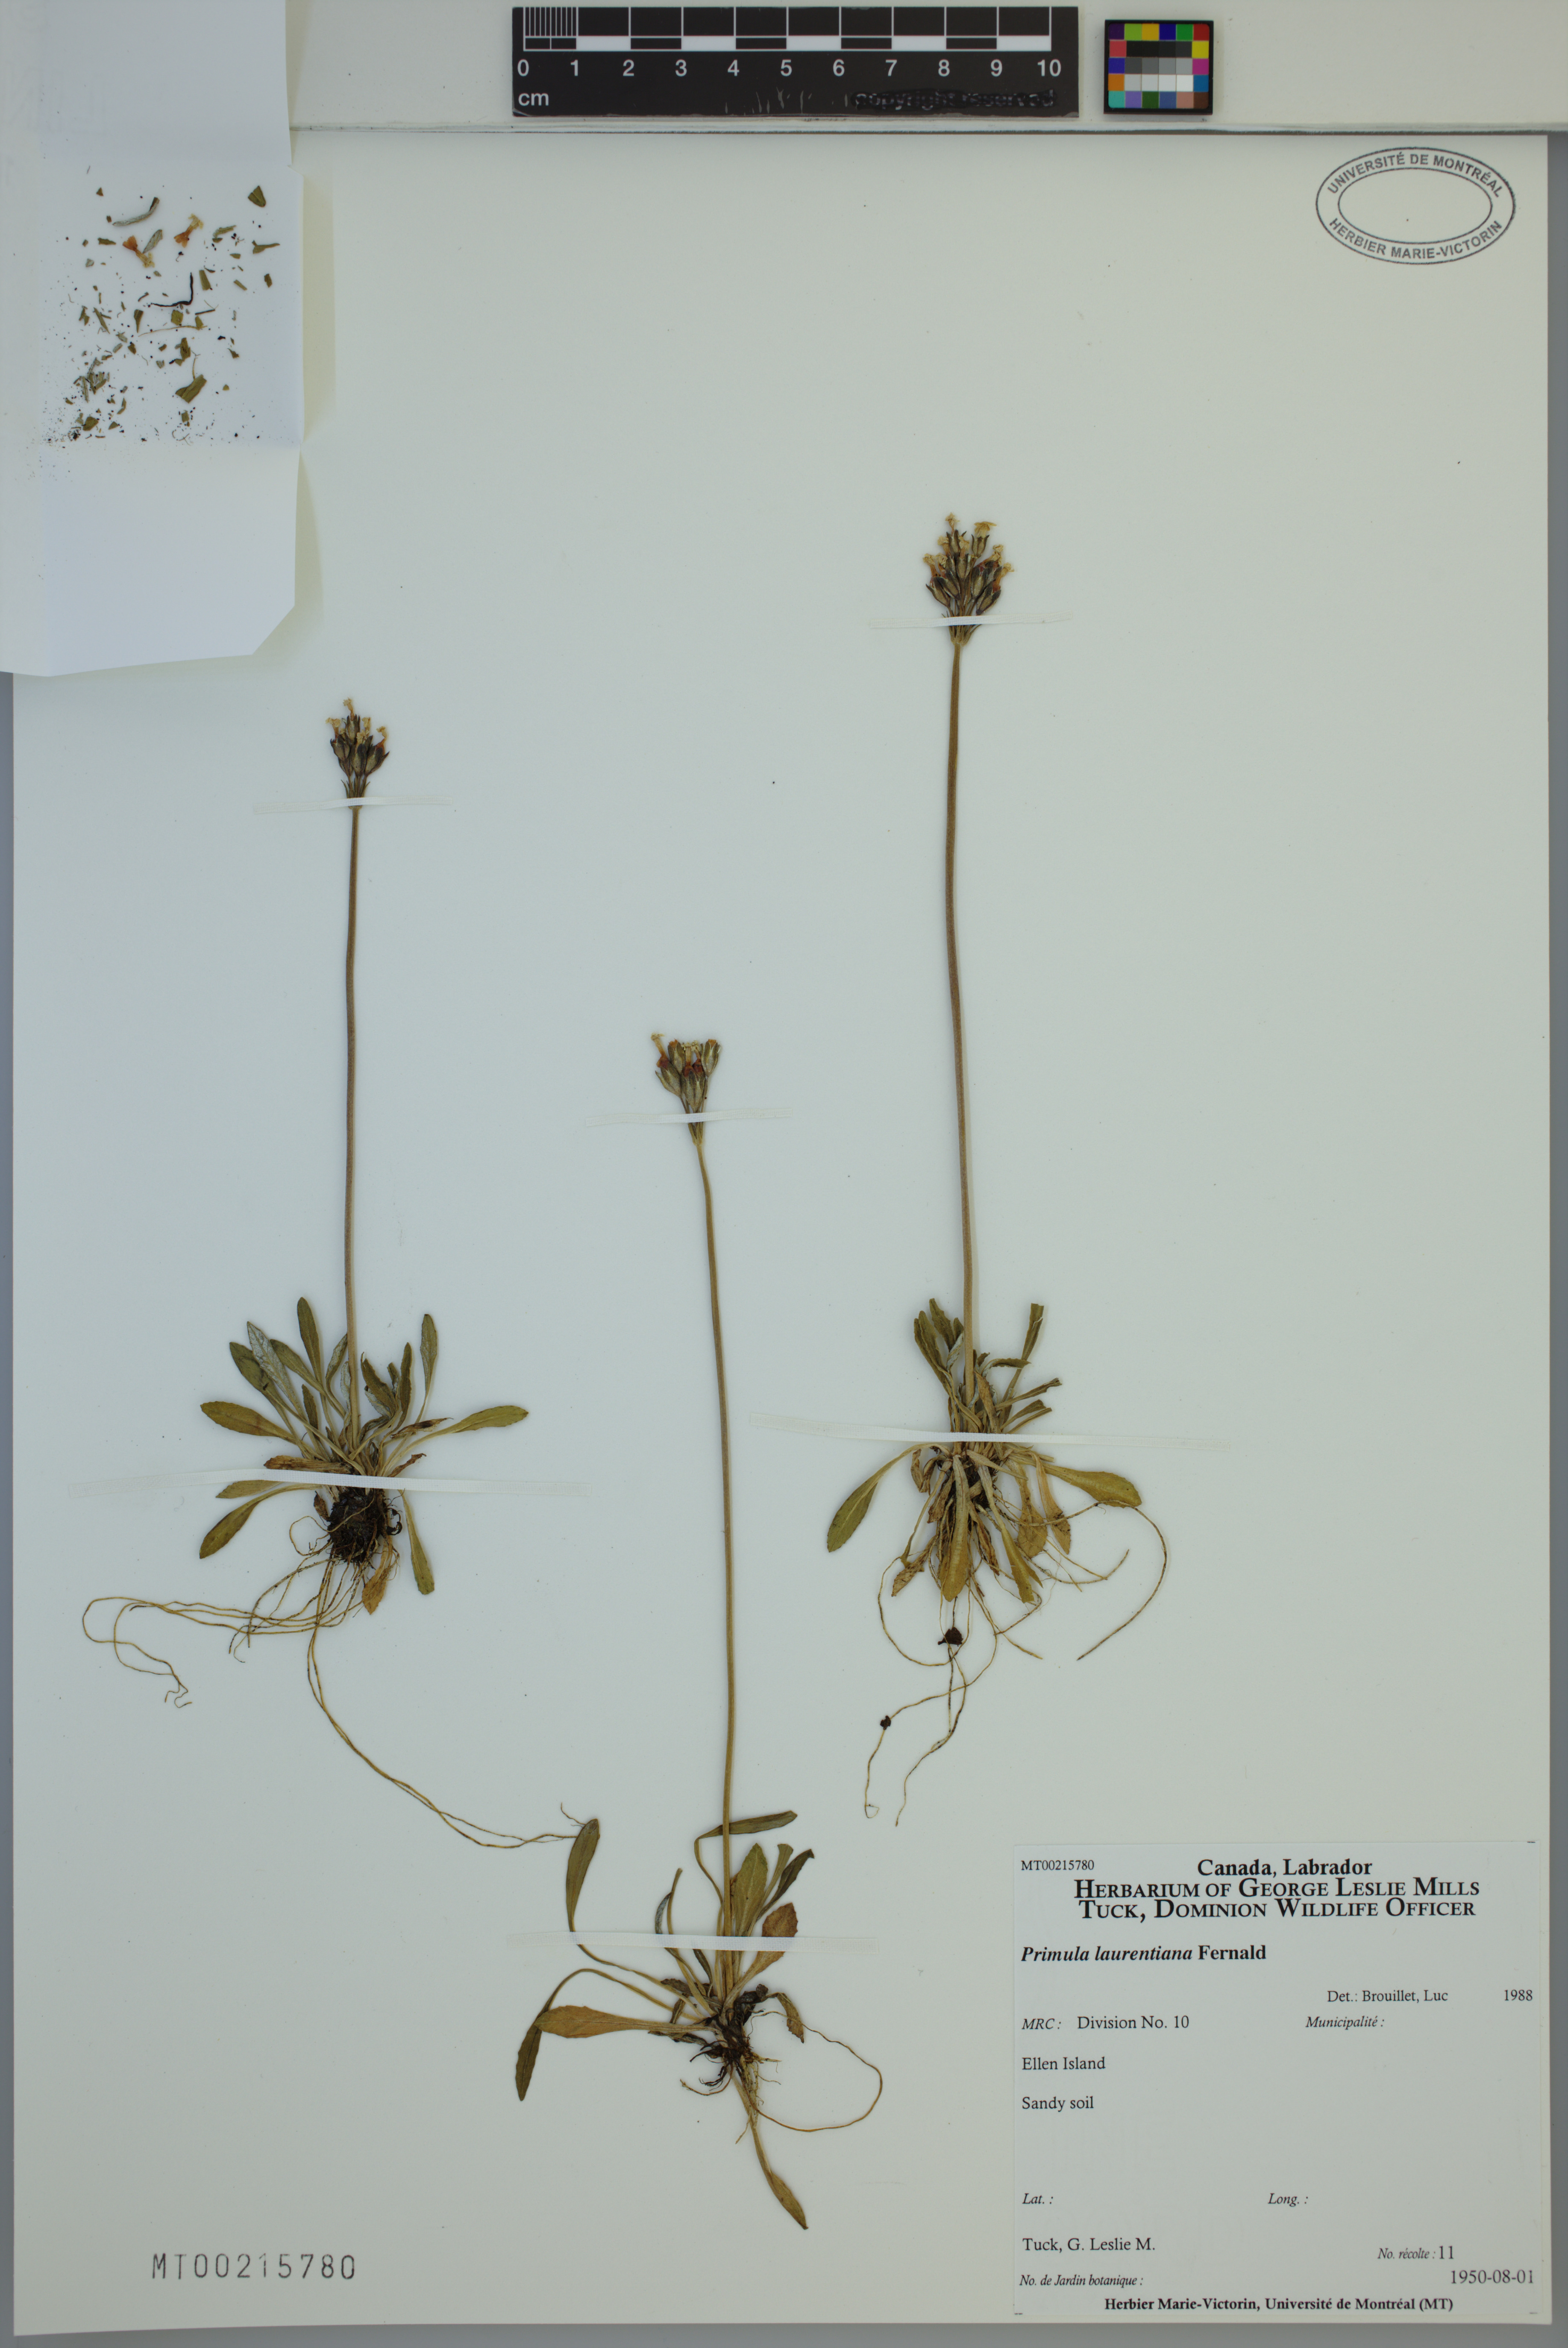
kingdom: Plantae
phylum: Tracheophyta
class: Magnoliopsida
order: Ericales
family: Primulaceae
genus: Primula
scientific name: Primula laurentiana
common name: Bird-eye primrose
